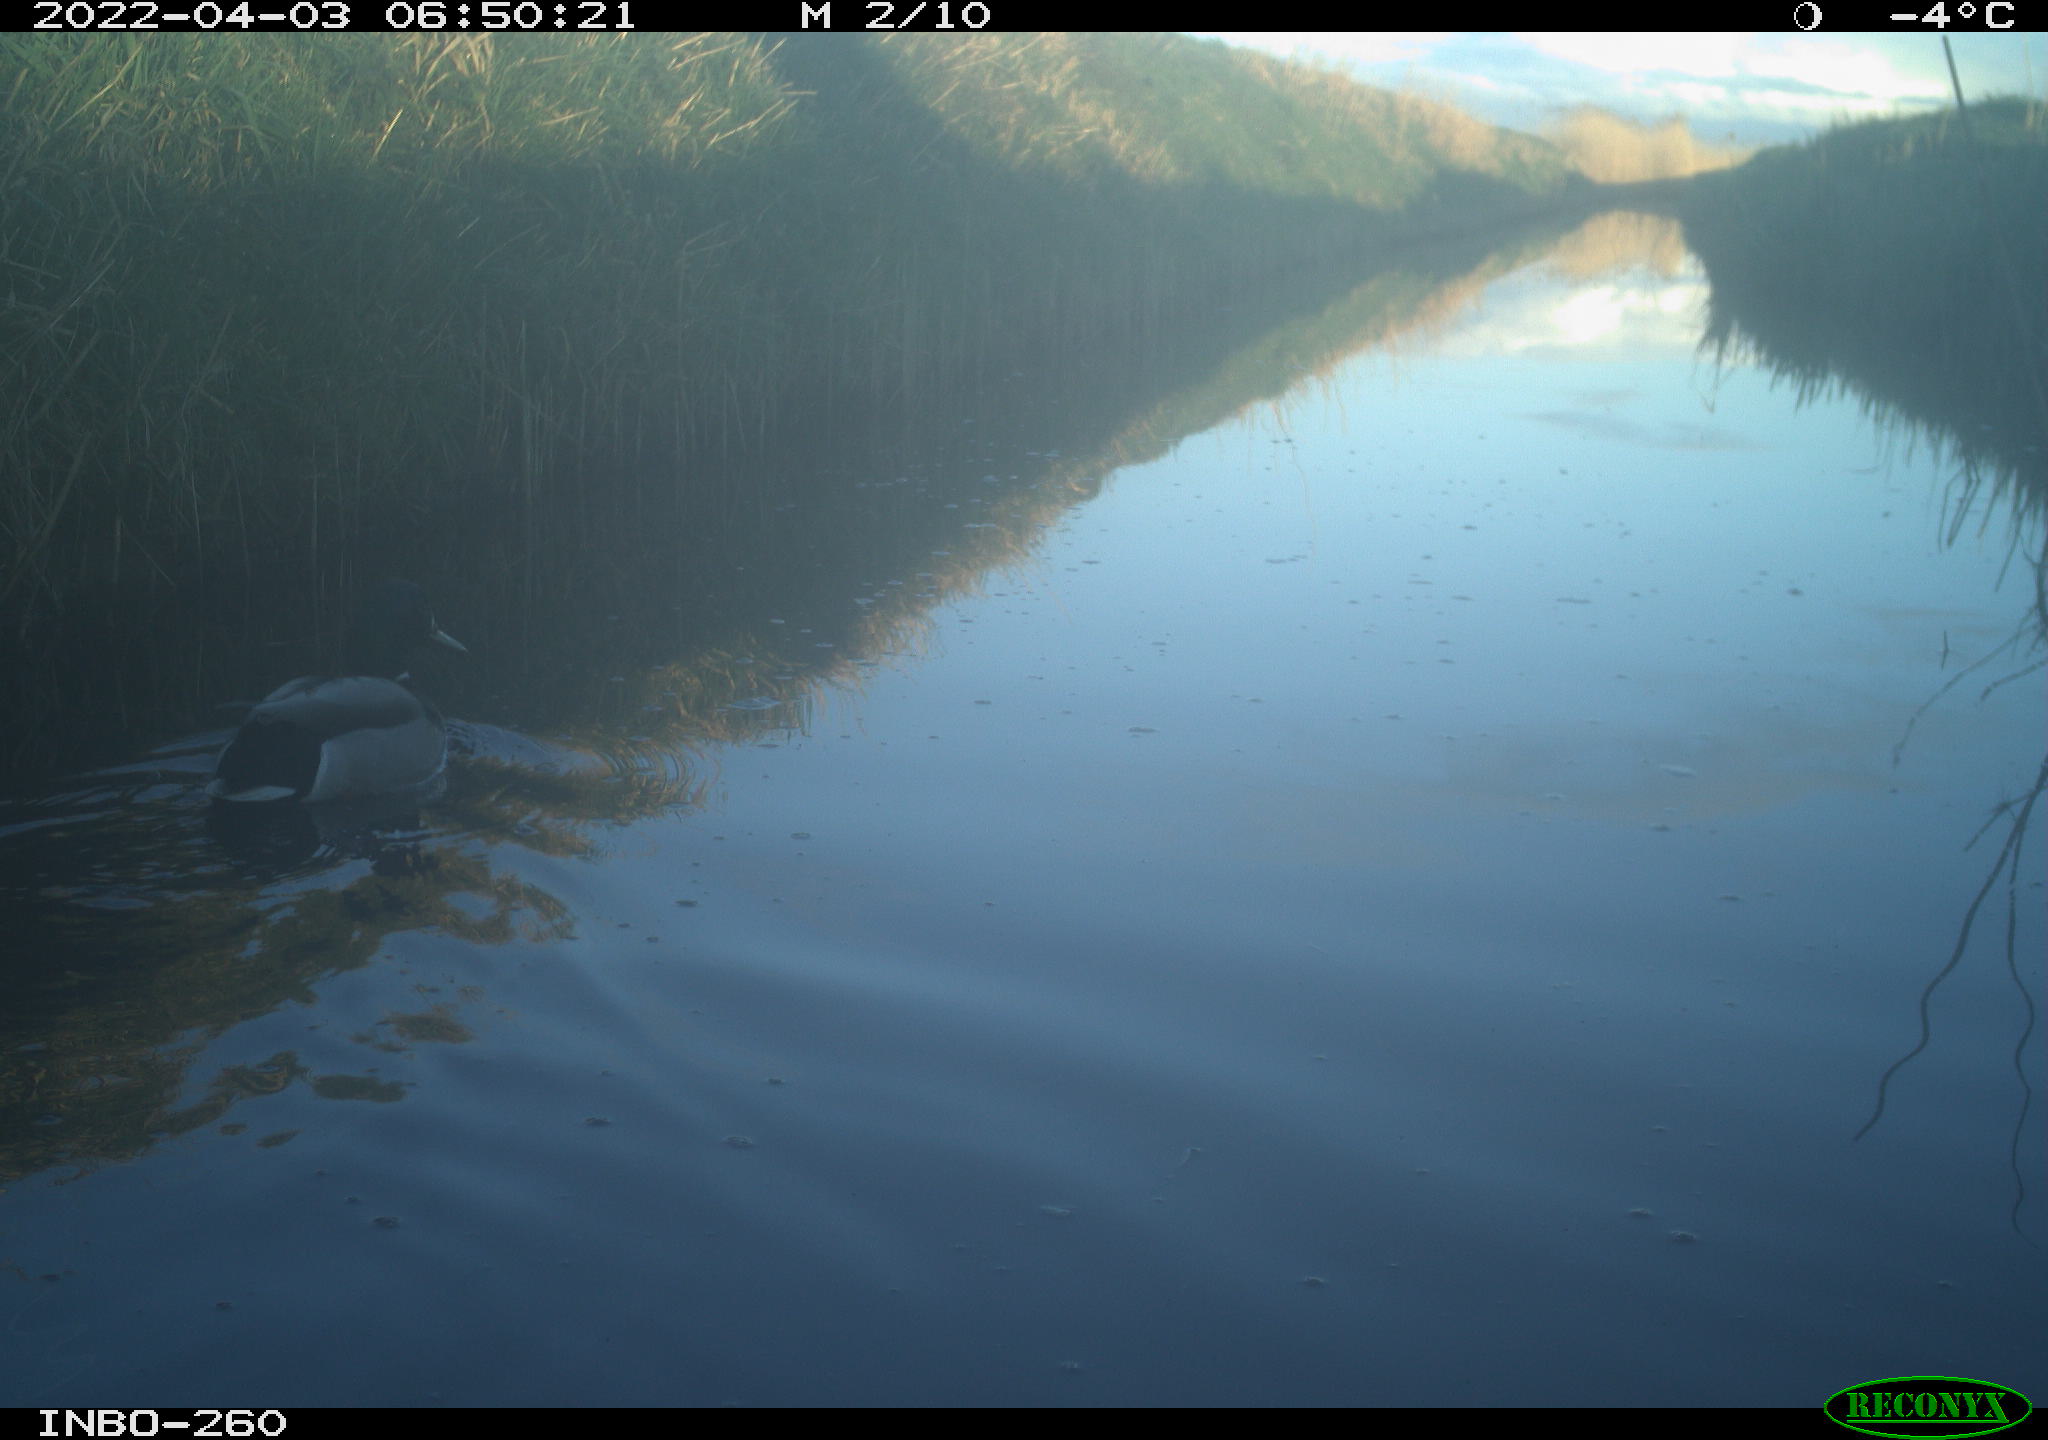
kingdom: Animalia
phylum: Chordata
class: Aves
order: Anseriformes
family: Anatidae
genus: Anas
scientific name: Anas platyrhynchos
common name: Mallard
